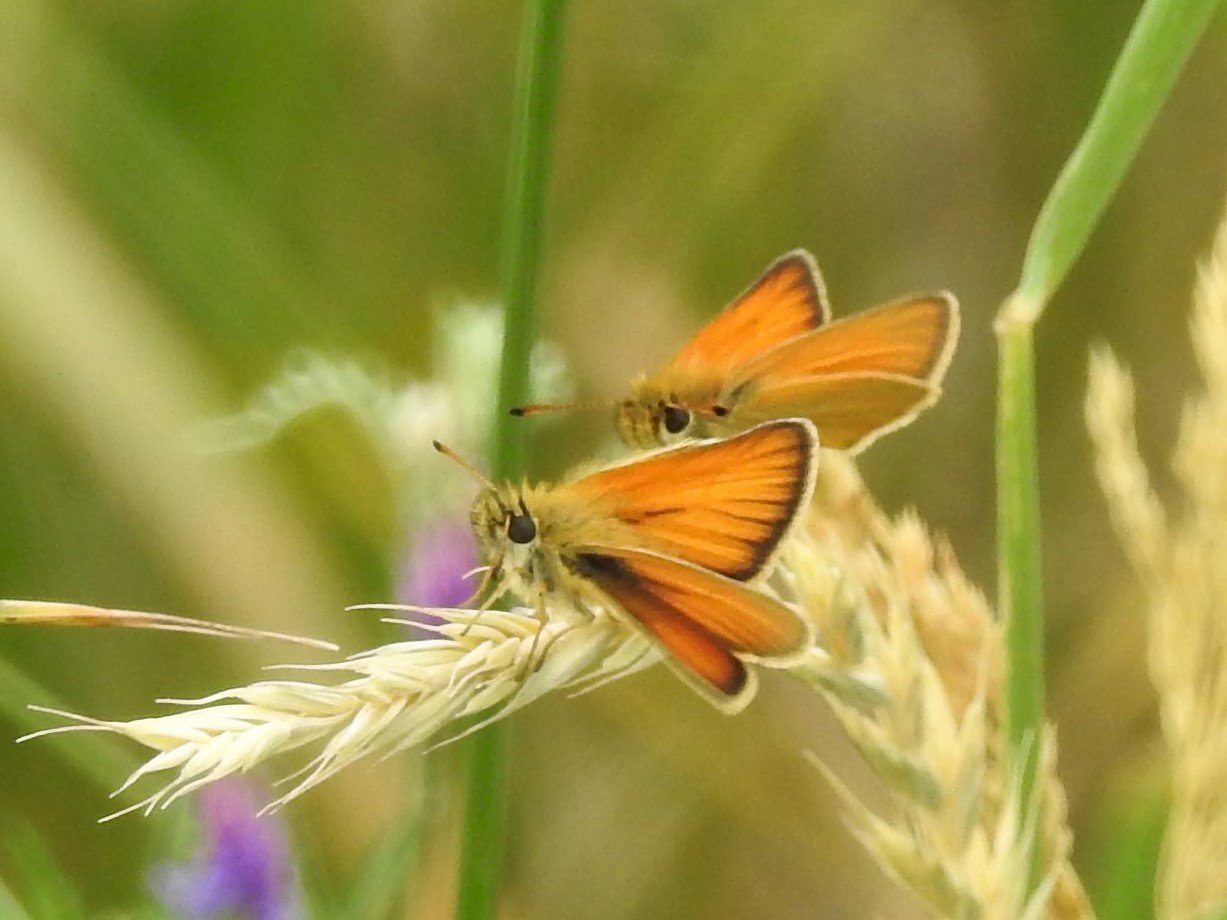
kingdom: Animalia
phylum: Arthropoda
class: Insecta
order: Lepidoptera
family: Hesperiidae
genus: Thymelicus
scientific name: Thymelicus lineola
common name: European Skipper
